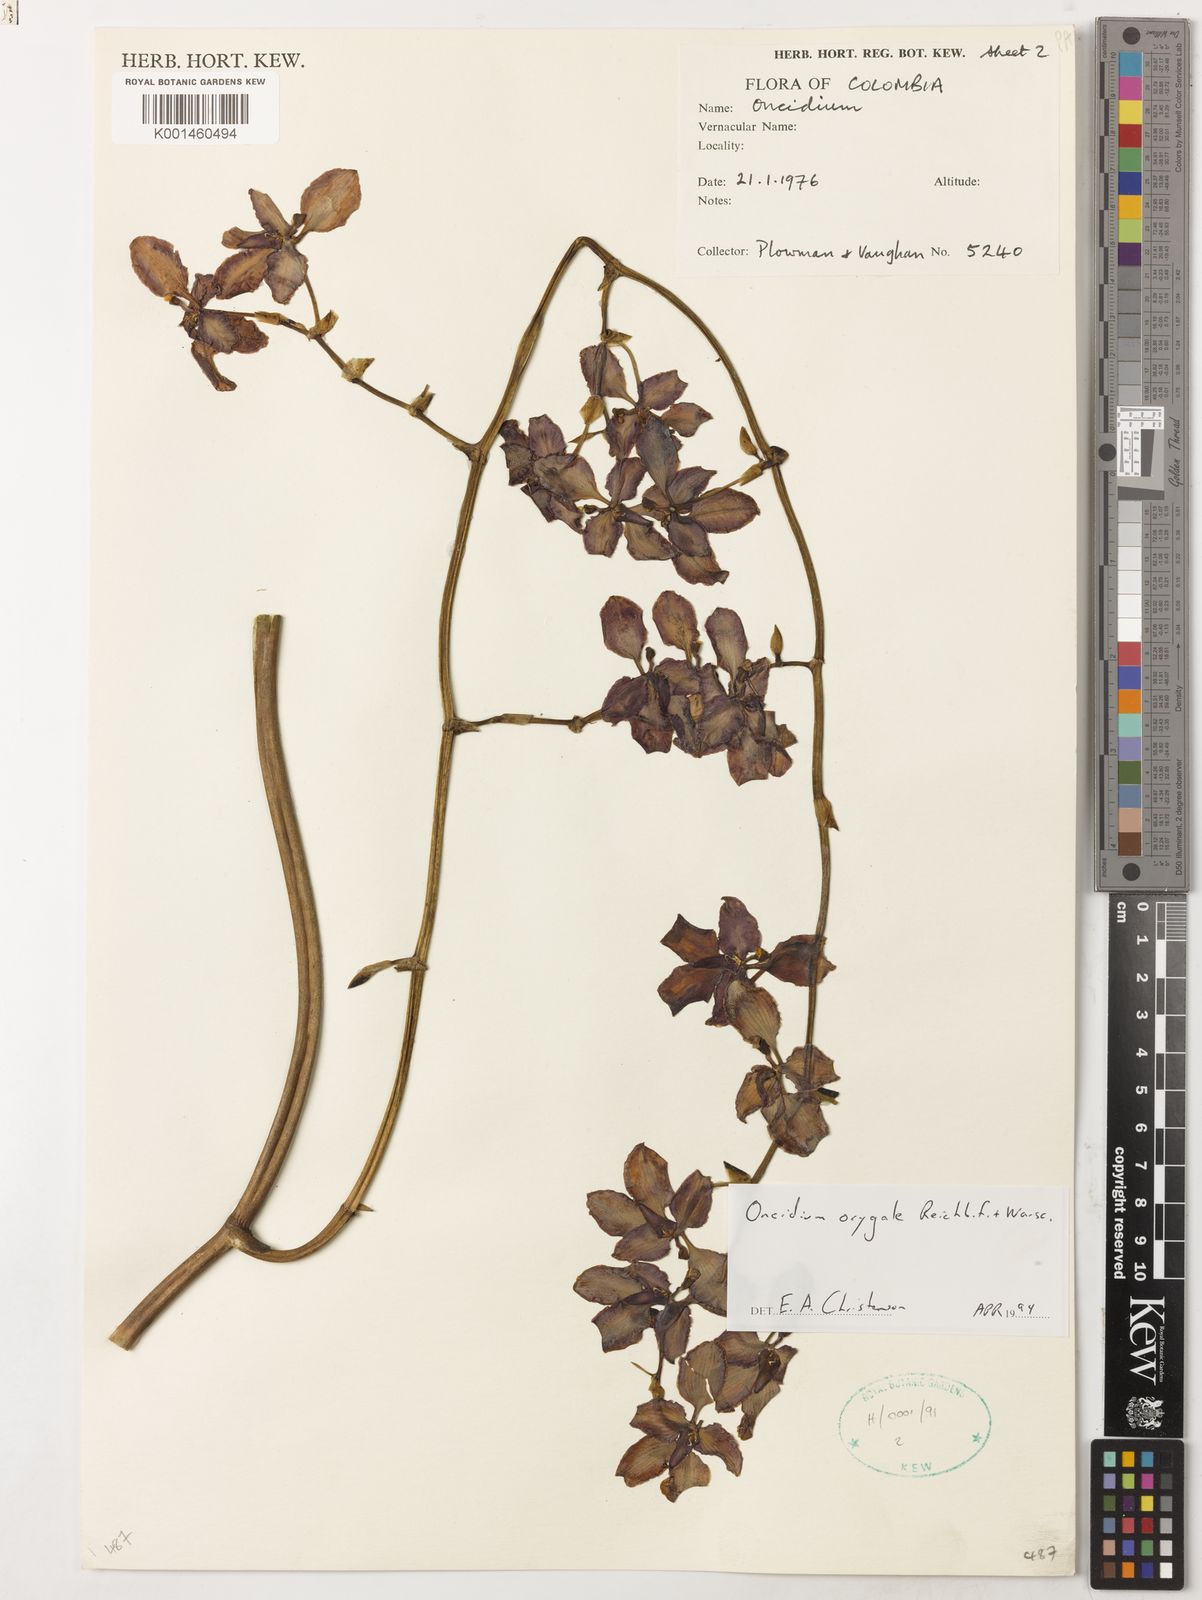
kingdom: Plantae
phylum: Tracheophyta
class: Liliopsida
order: Asparagales
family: Orchidaceae
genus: Cyrtochilum
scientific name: Cyrtochilum orgyale
